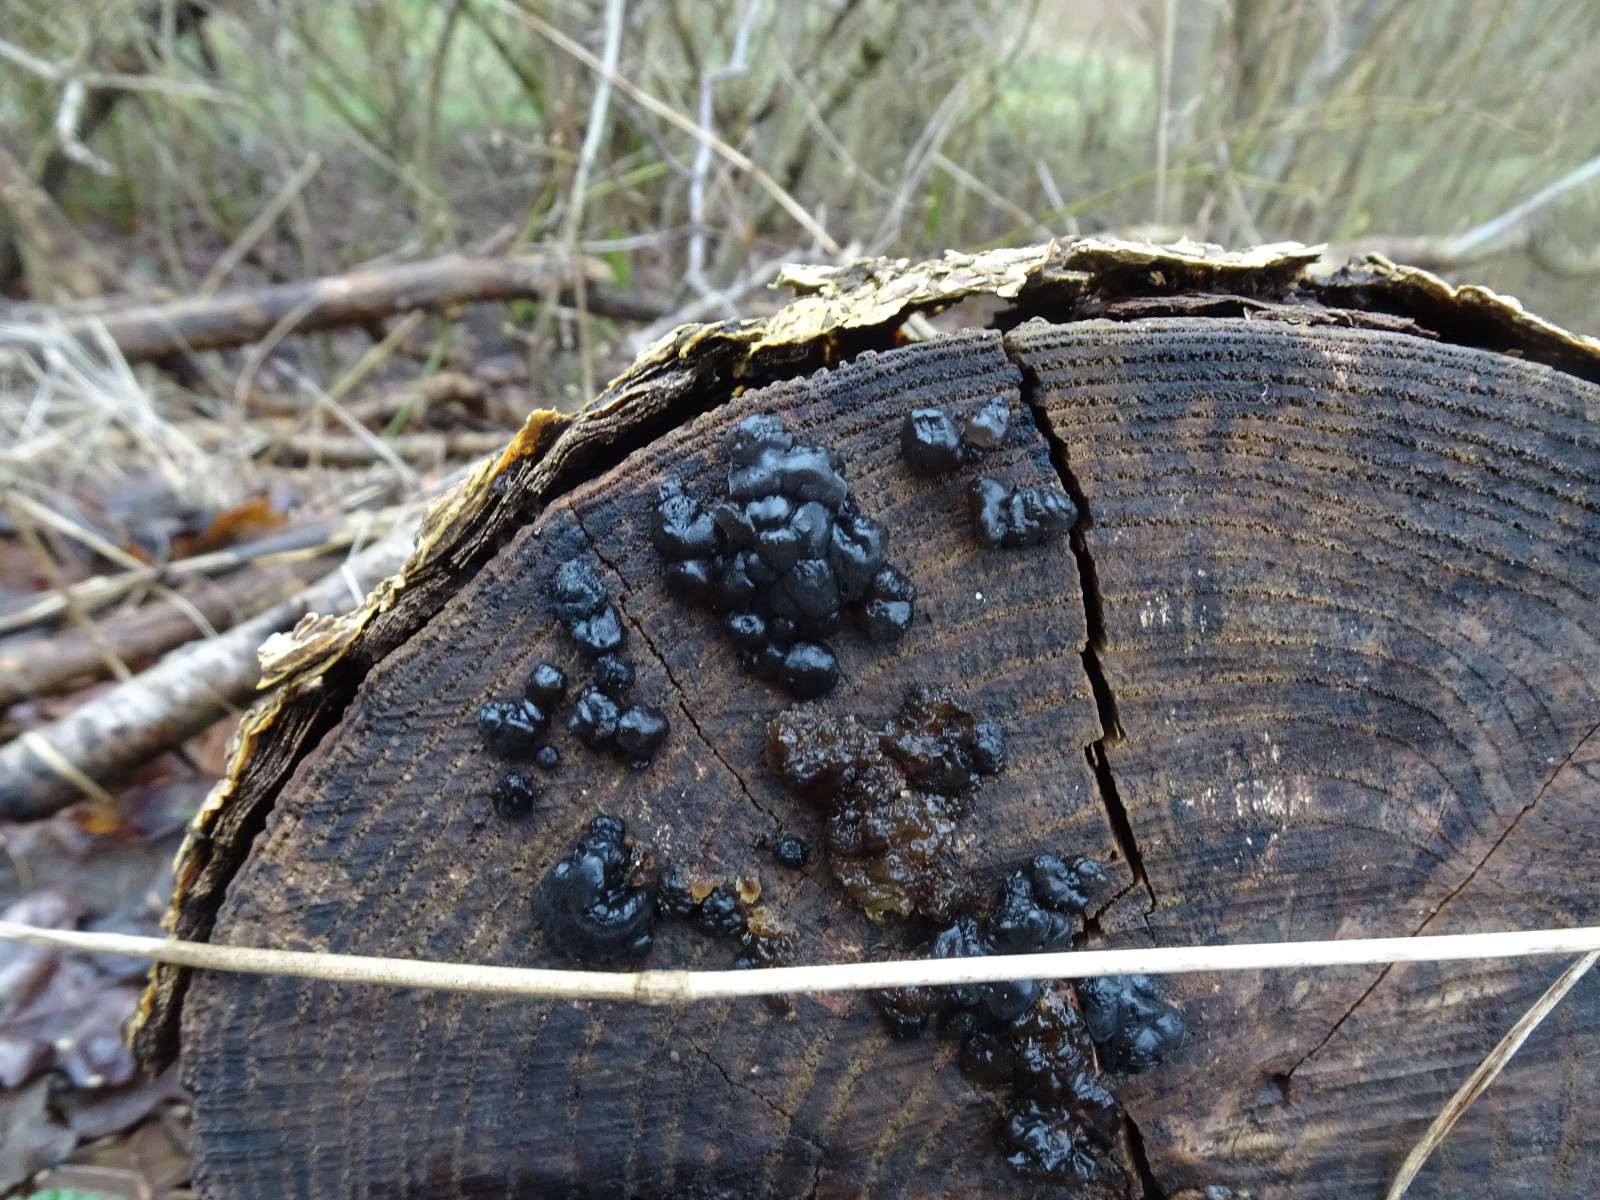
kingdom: Fungi
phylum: Basidiomycota
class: Agaricomycetes
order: Auriculariales
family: Auriculariaceae
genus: Exidia
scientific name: Exidia nigricans
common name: almindelig bævretop
